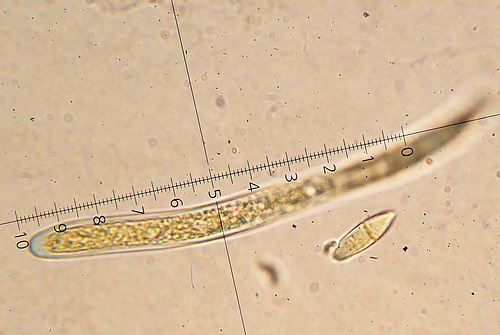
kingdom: Fungi
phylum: Ascomycota
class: Lecanoromycetes
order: Pertusariales
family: Icmadophilaceae
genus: Icmadophila
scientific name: Icmadophila ericetorum
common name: blegrød tørvelav
